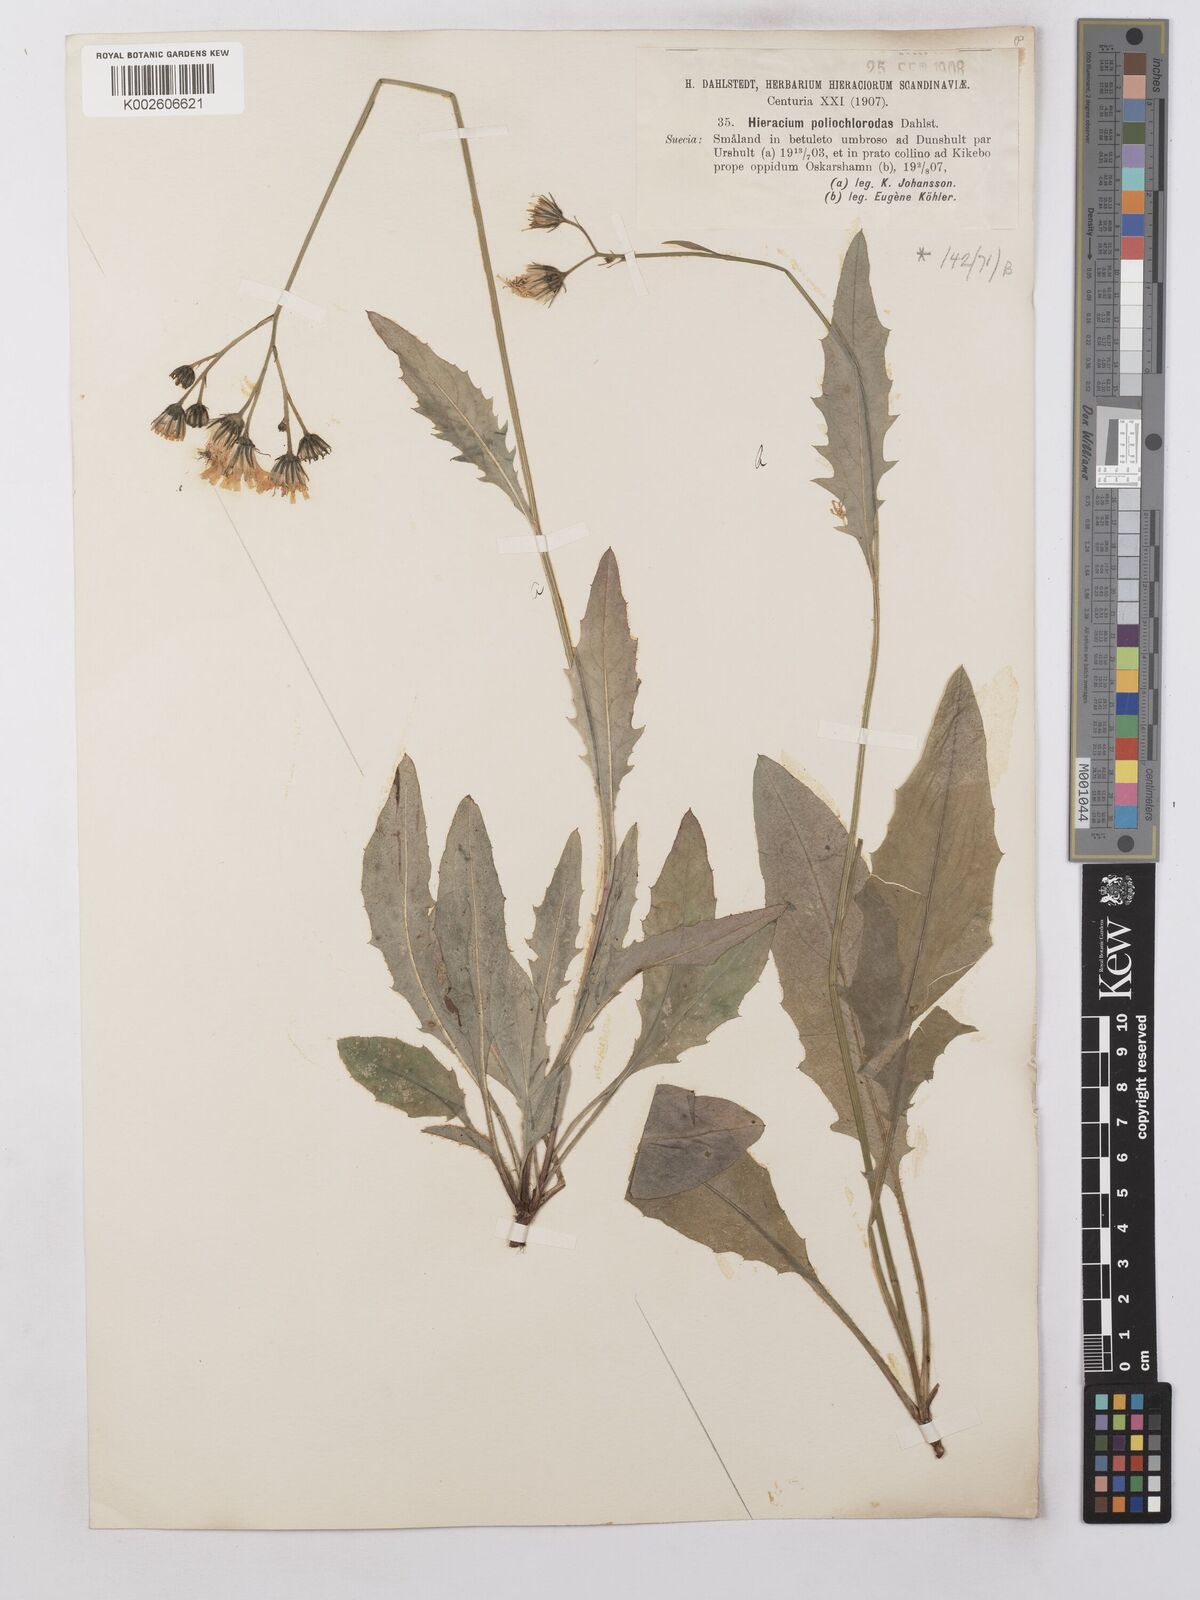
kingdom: Plantae
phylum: Tracheophyta
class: Magnoliopsida
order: Asterales
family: Asteraceae
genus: Hieracium
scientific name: Hieracium lachenalii
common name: Common hawkweed
